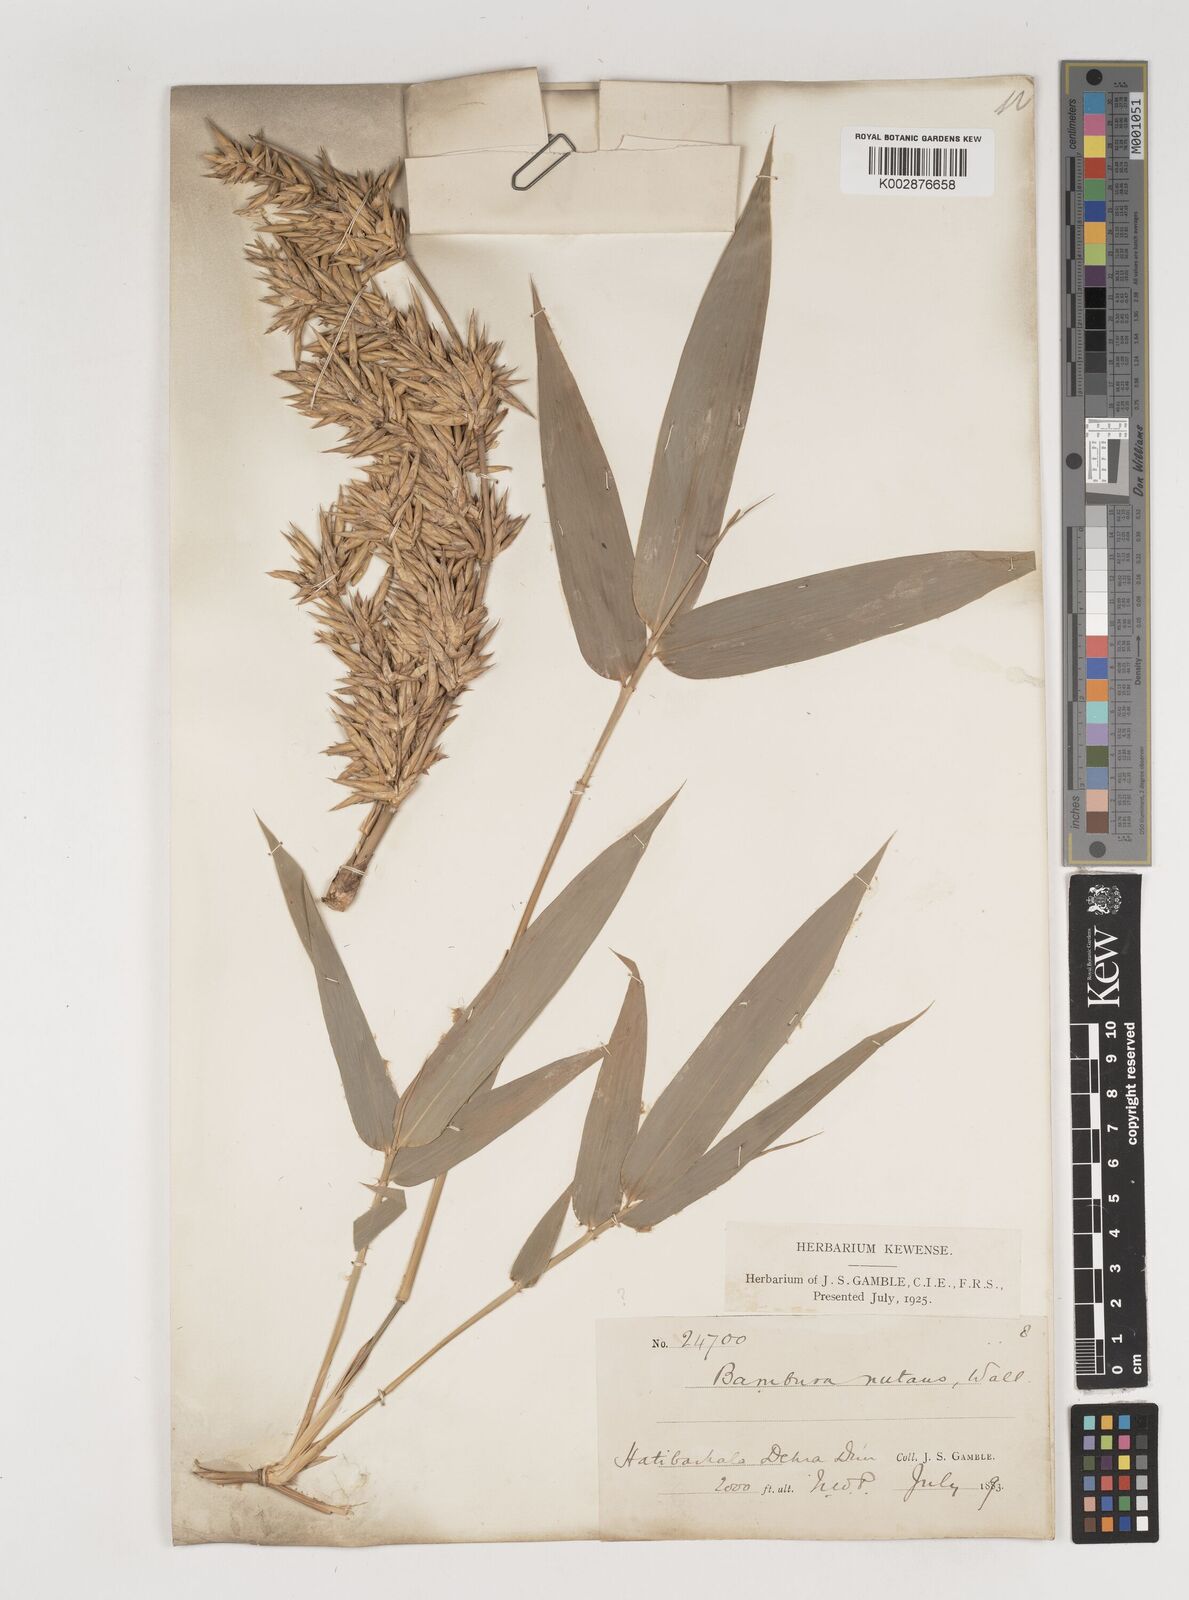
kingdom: Plantae
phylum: Tracheophyta
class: Liliopsida
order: Poales
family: Poaceae
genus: Bambusa
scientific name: Bambusa nutans
